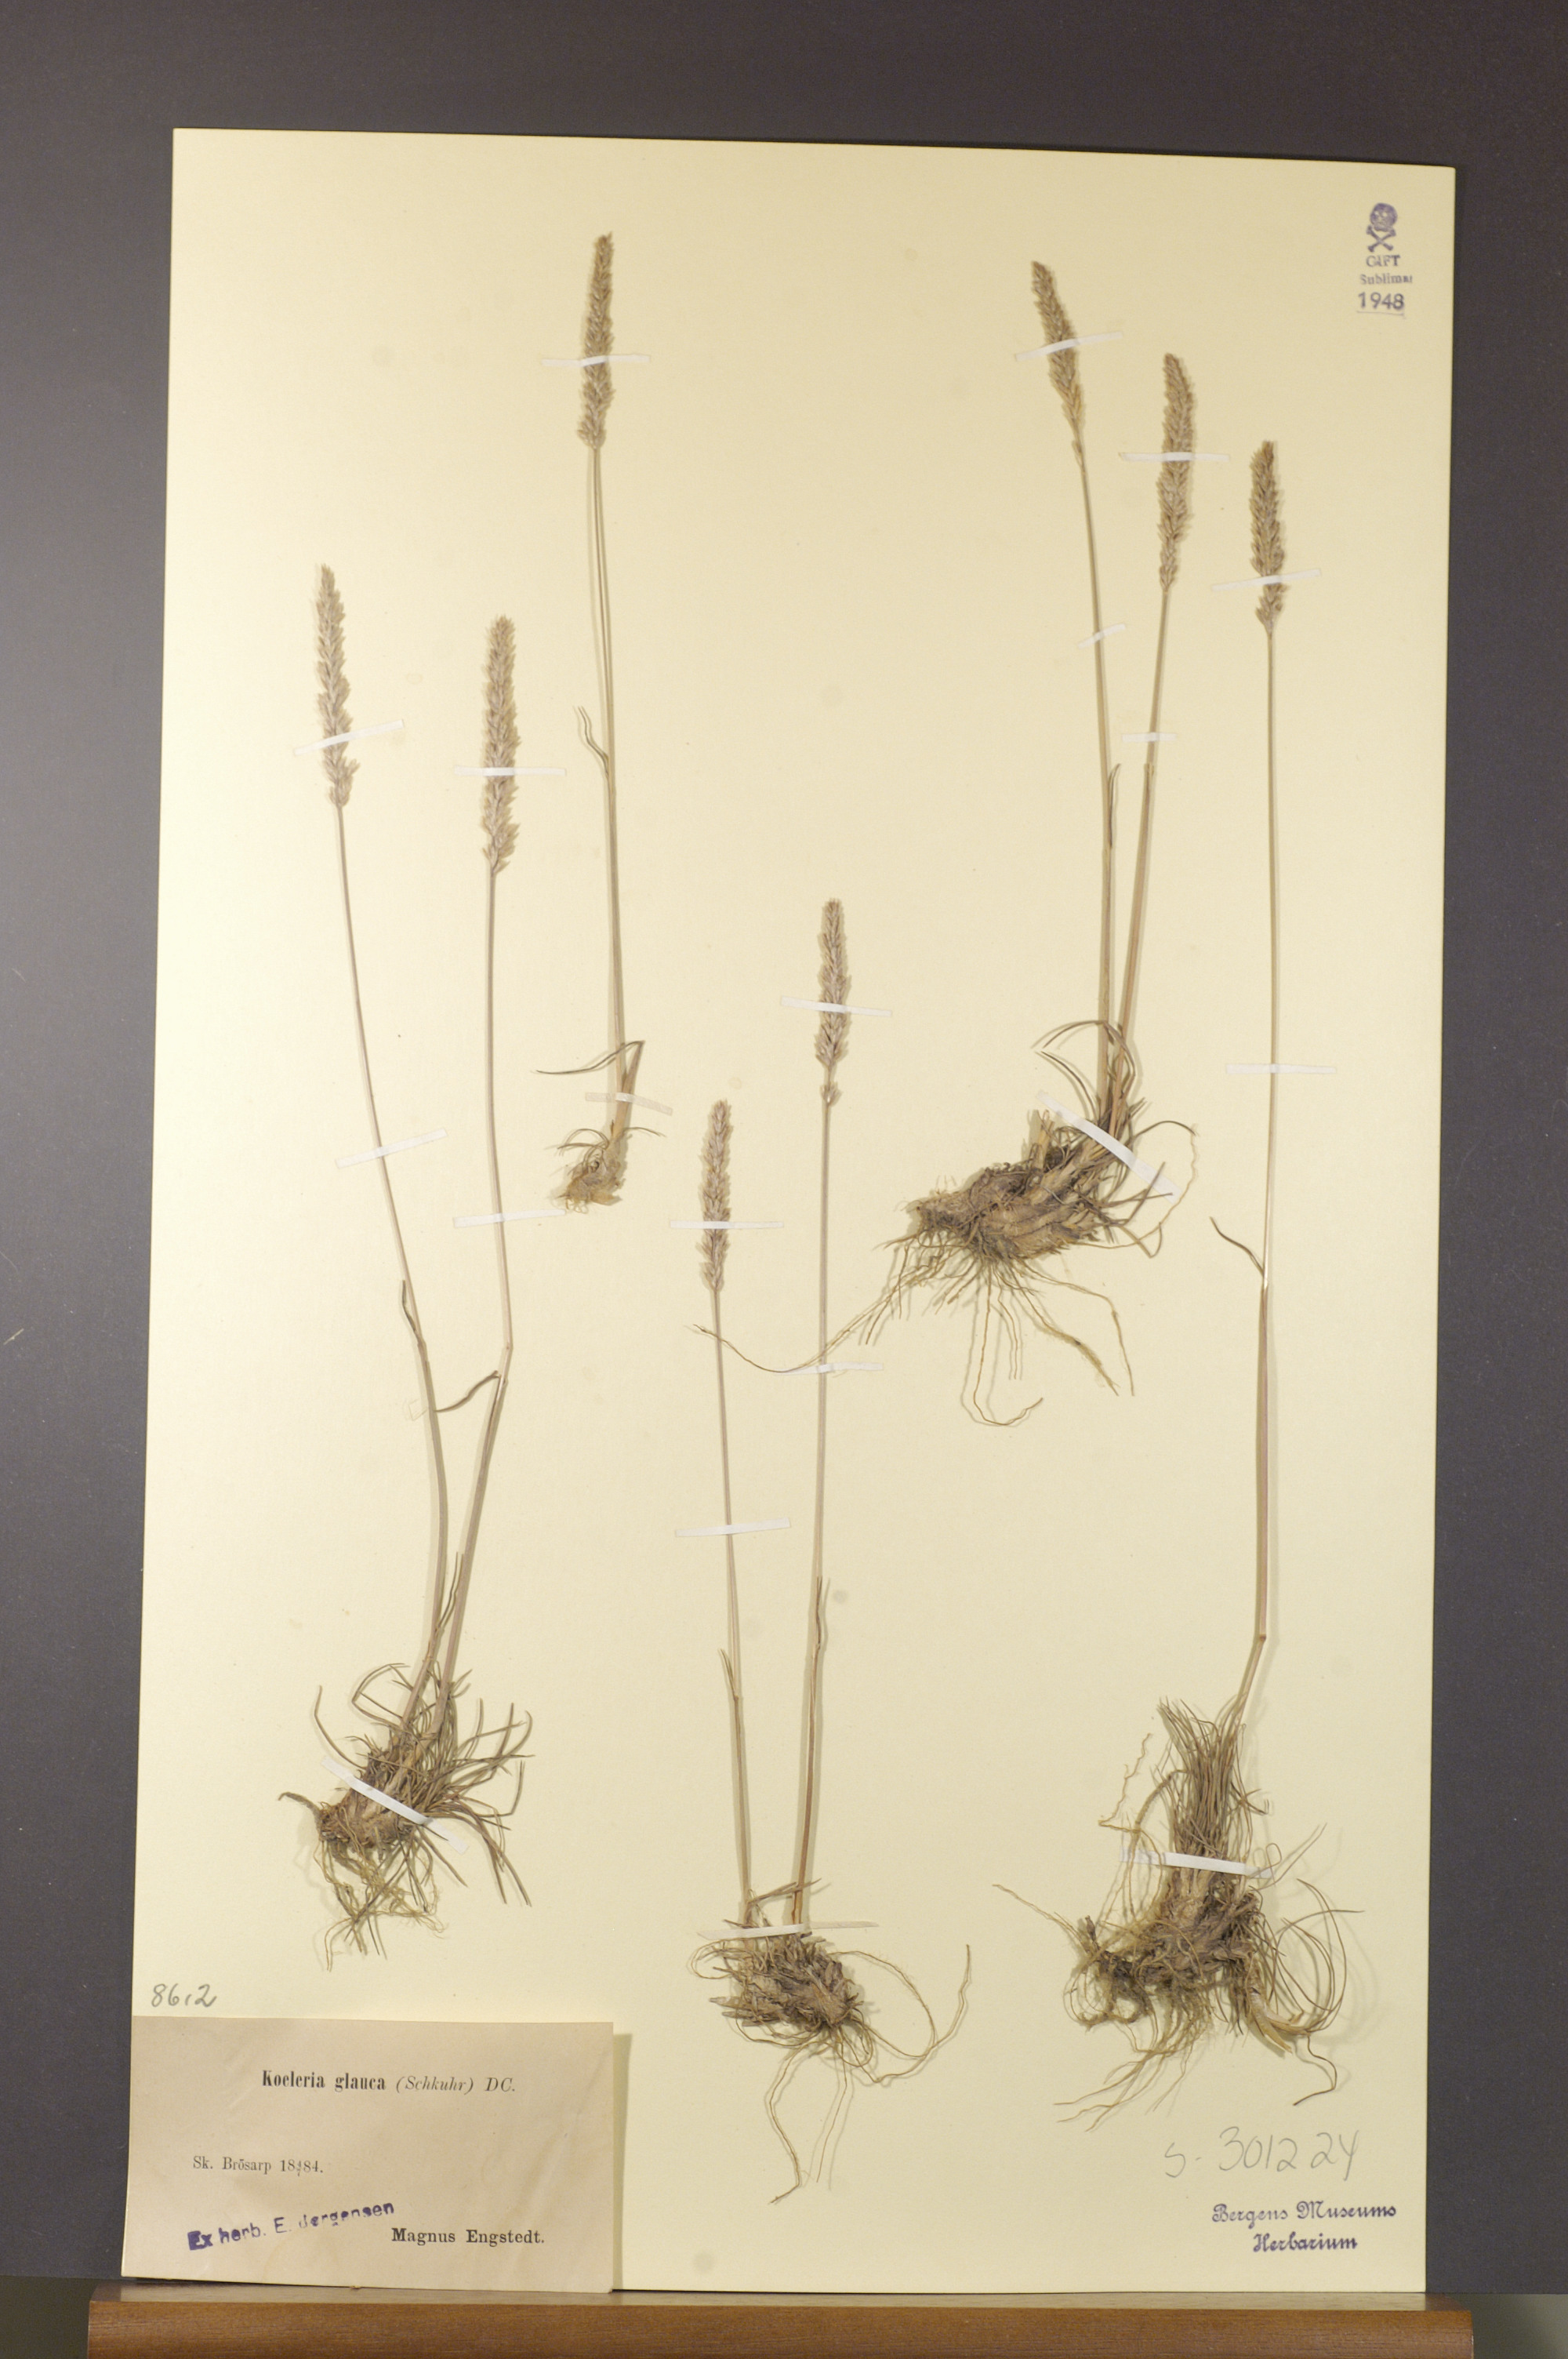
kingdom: Plantae
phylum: Tracheophyta
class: Liliopsida
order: Poales
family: Poaceae
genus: Koeleria
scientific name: Koeleria glauca
